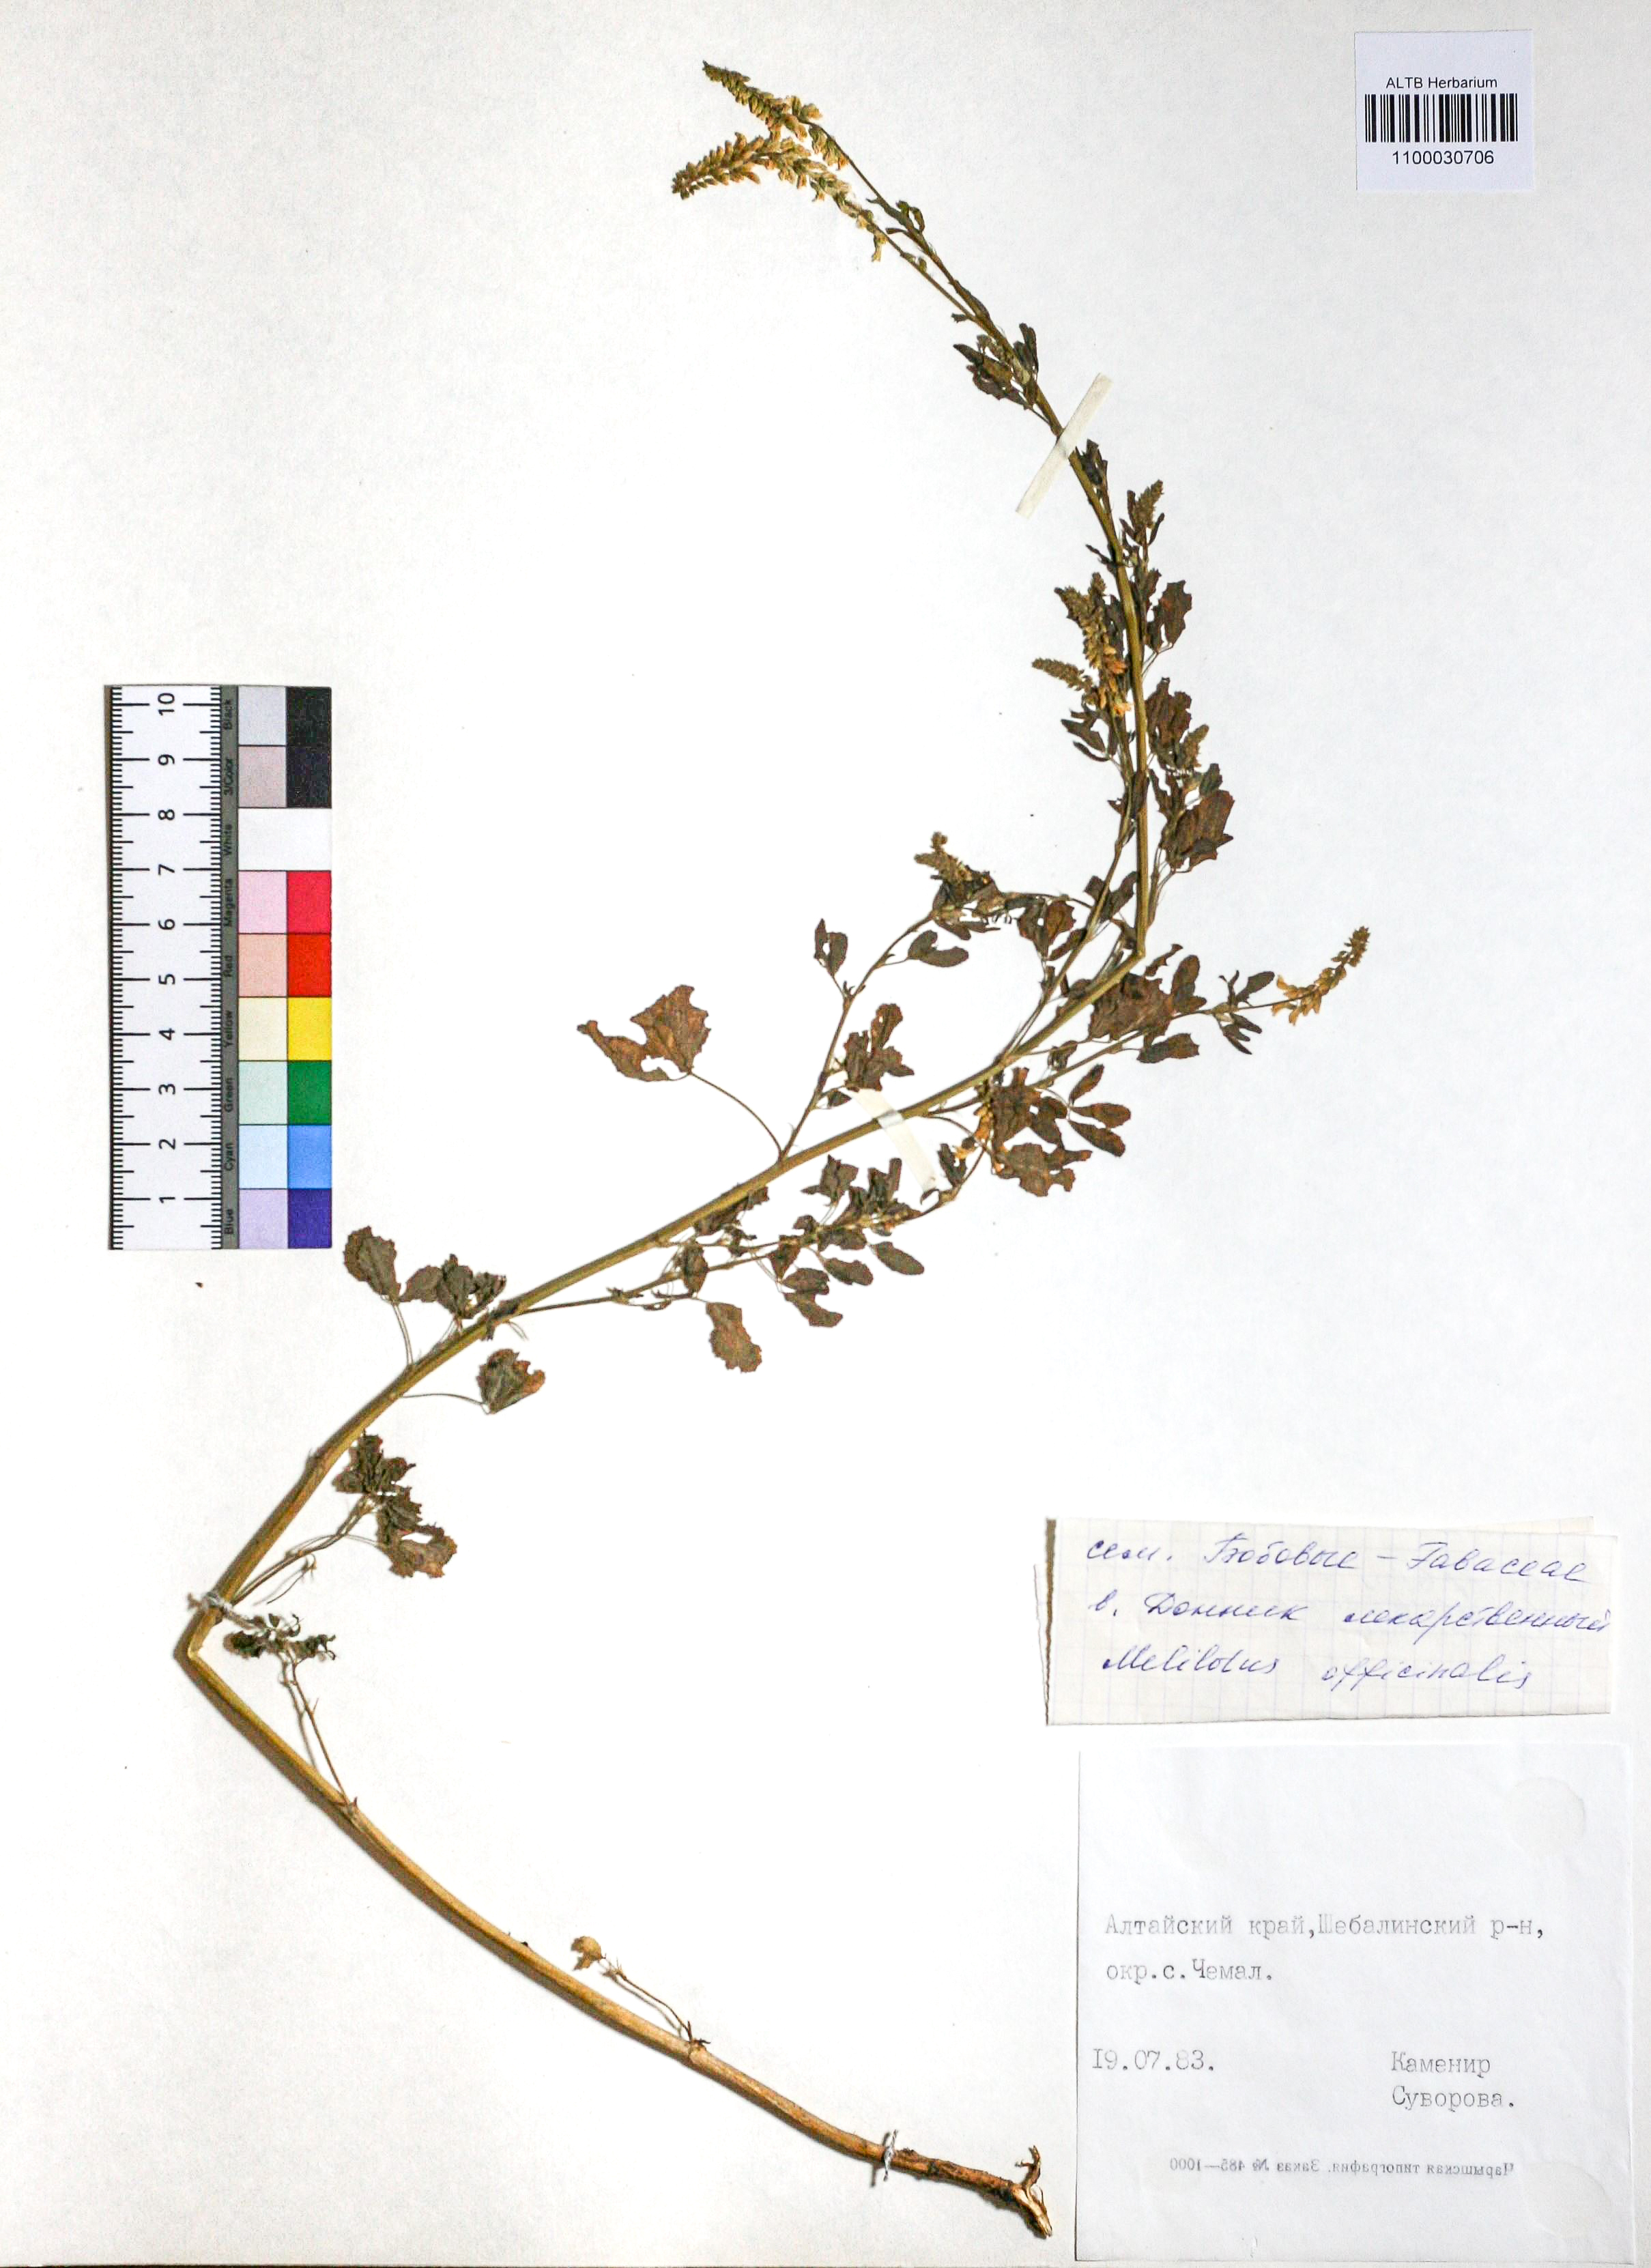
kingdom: Plantae
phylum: Tracheophyta
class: Magnoliopsida
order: Fabales
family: Fabaceae
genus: Melilotus
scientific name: Melilotus officinalis
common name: Sweetclover
